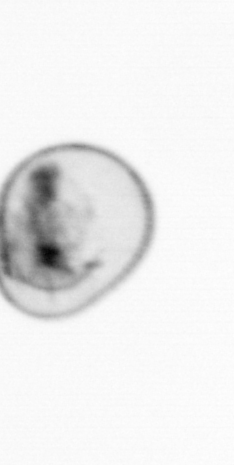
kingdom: Chromista
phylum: Myzozoa
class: Dinophyceae
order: Noctilucales
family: Noctilucaceae
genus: Noctiluca
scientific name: Noctiluca scintillans
